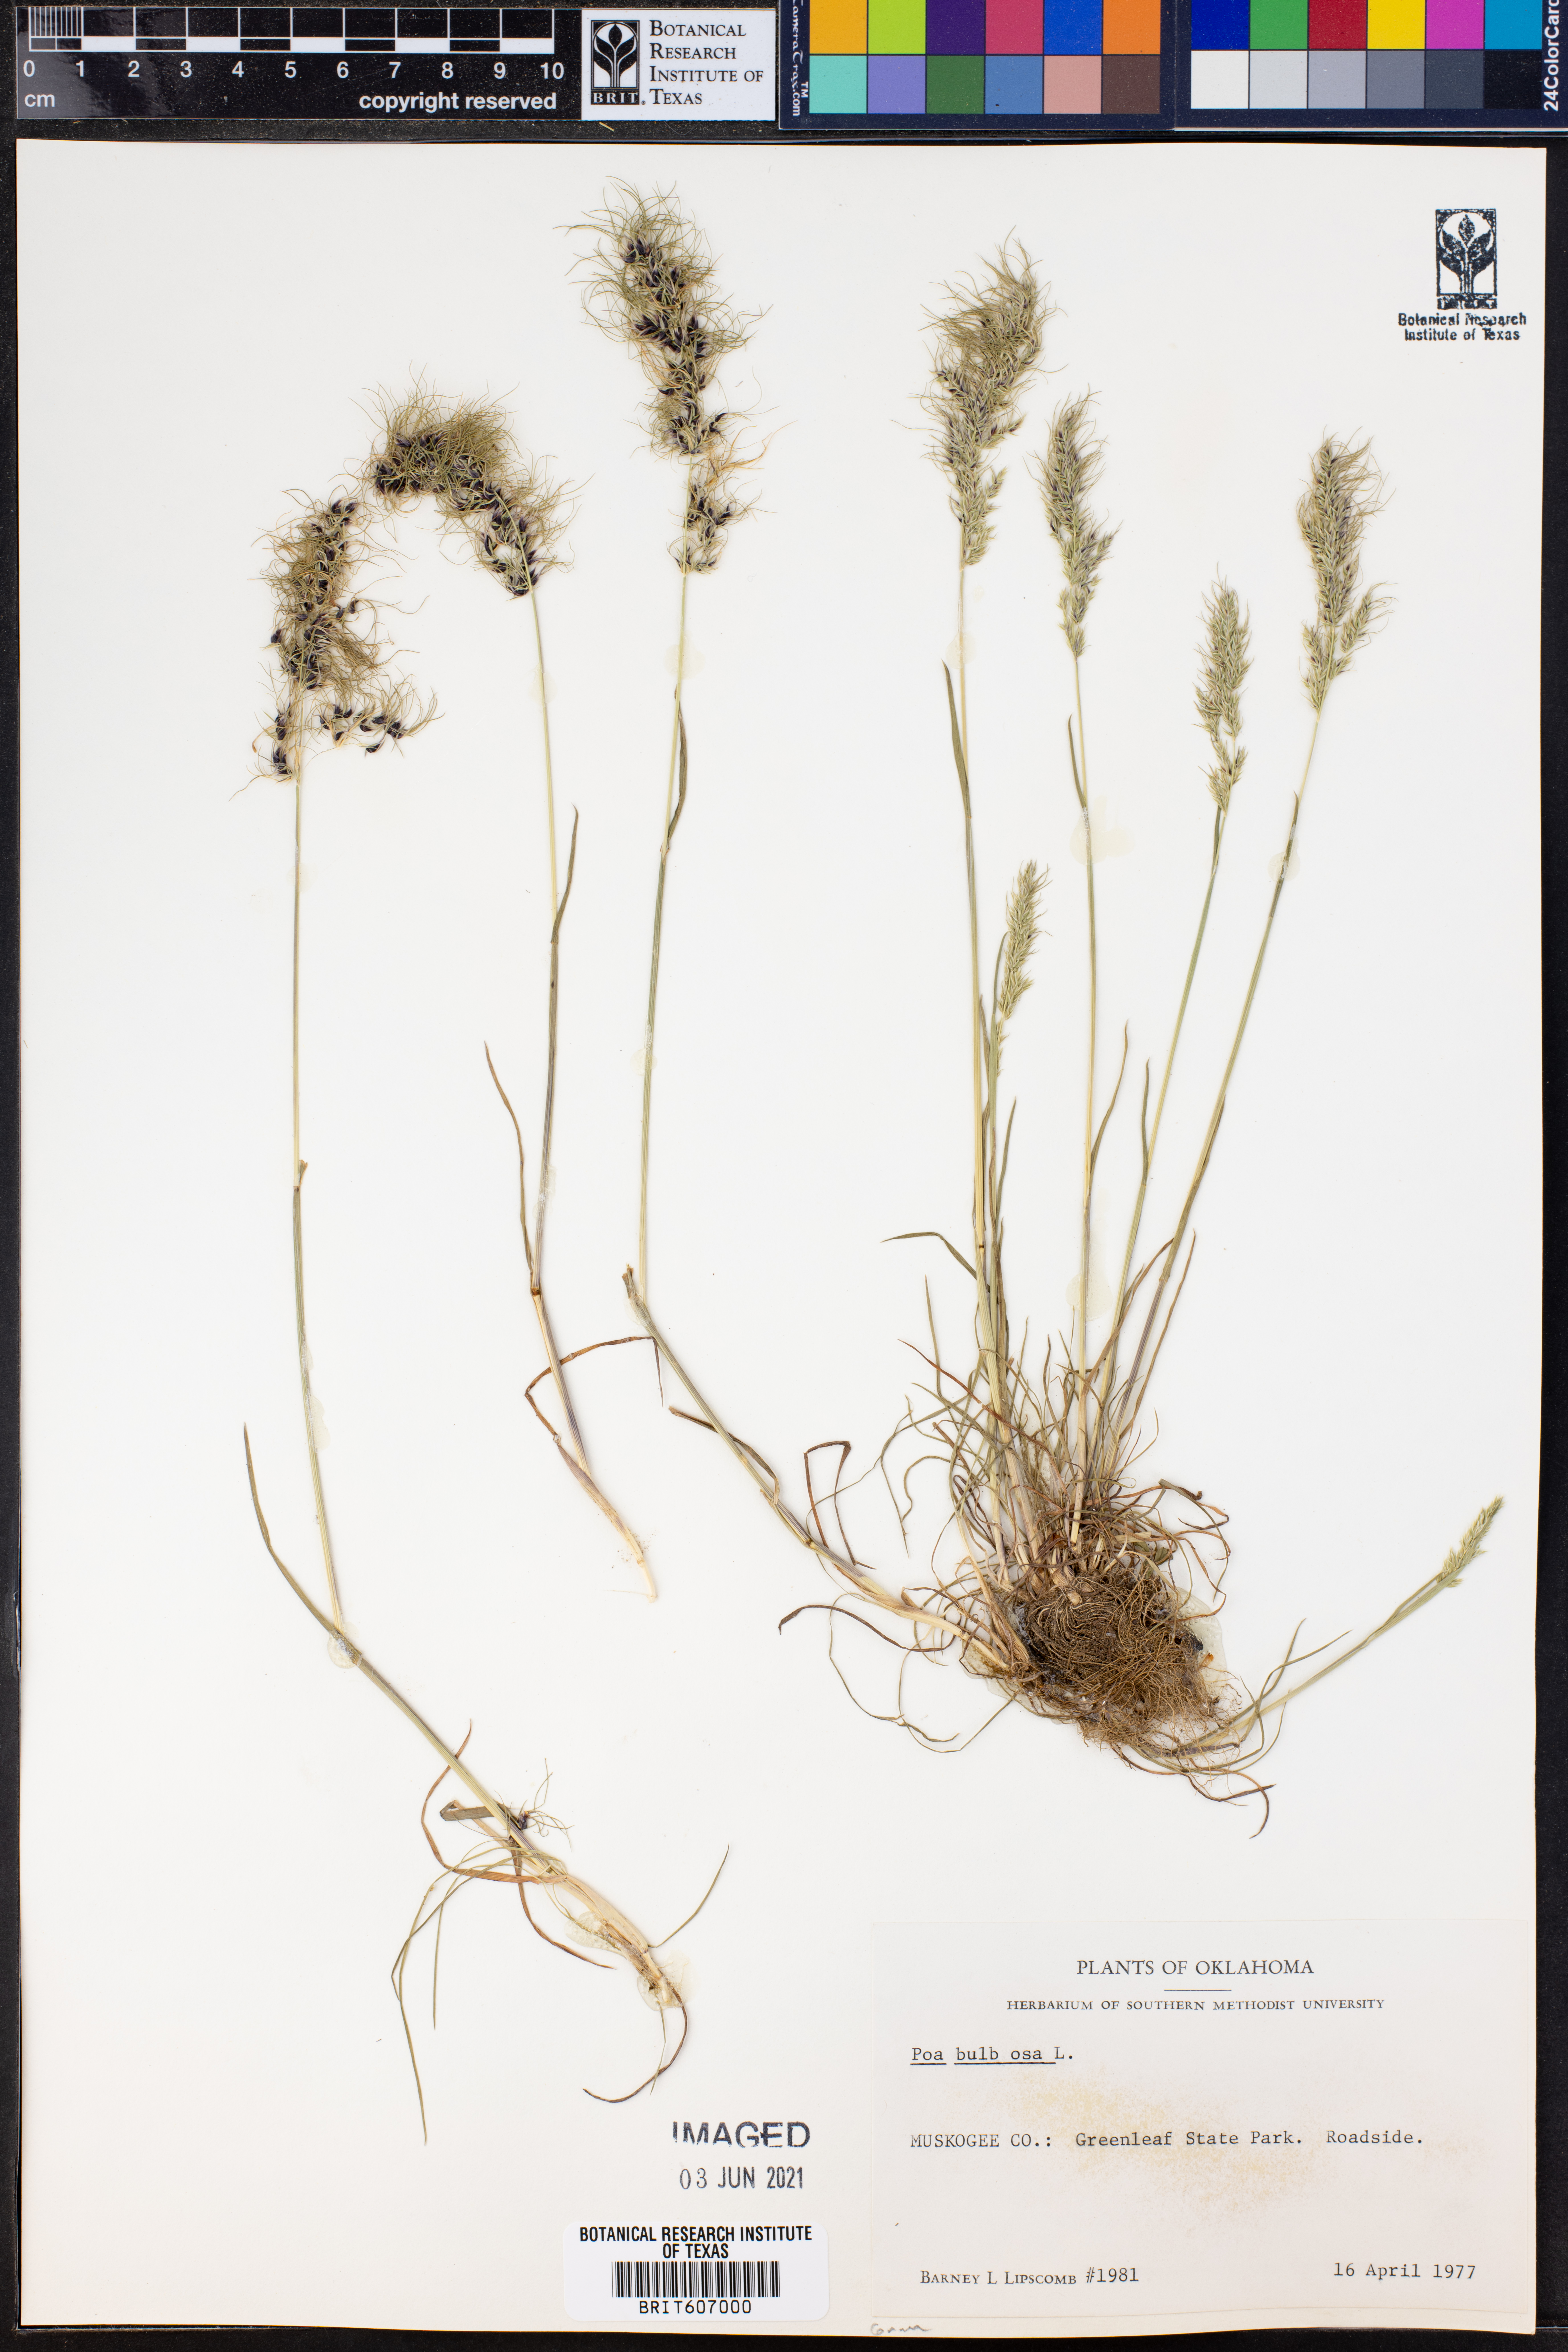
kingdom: Plantae
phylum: Tracheophyta
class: Liliopsida
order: Poales
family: Poaceae
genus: Poa
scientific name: Poa bulbosa
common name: Bulbous bluegrass
